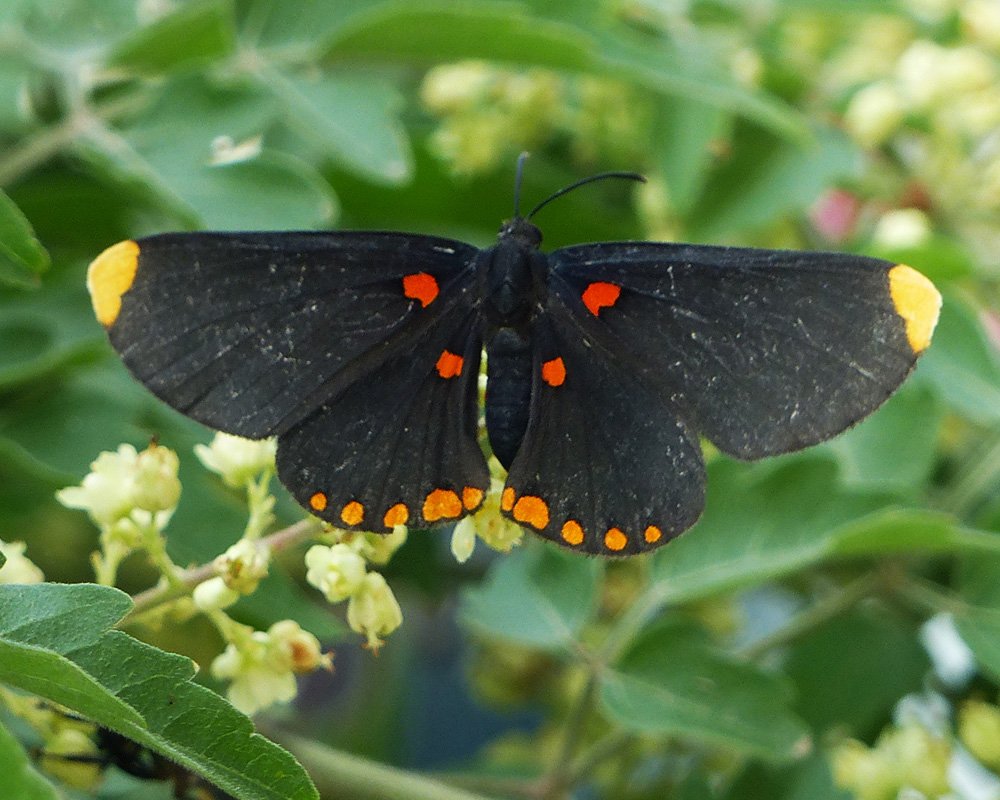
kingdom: Animalia
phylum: Arthropoda
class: Insecta
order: Lepidoptera
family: Lycaenidae
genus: Melanis
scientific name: Melanis pixe
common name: Red-bordered Pixie
